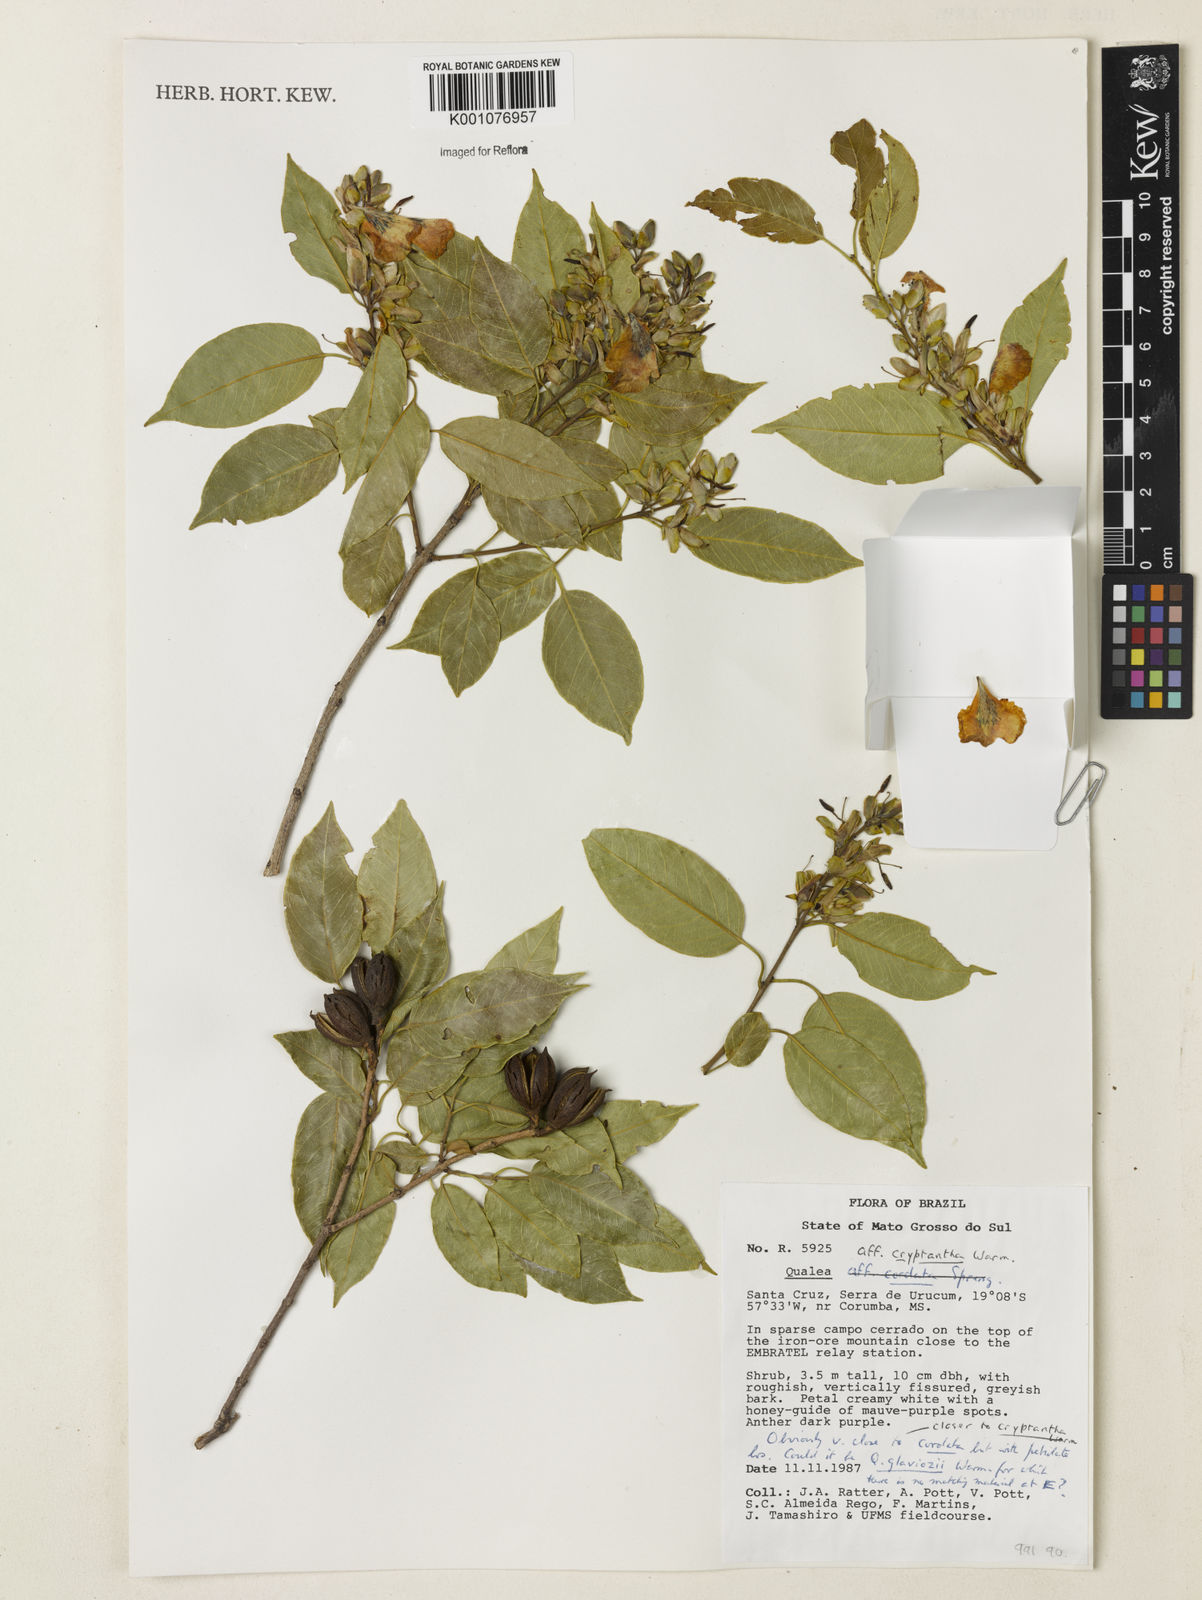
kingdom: Plantae
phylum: Tracheophyta
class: Magnoliopsida
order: Myrtales
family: Vochysiaceae
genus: Qualea
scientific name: Qualea cryptantha
